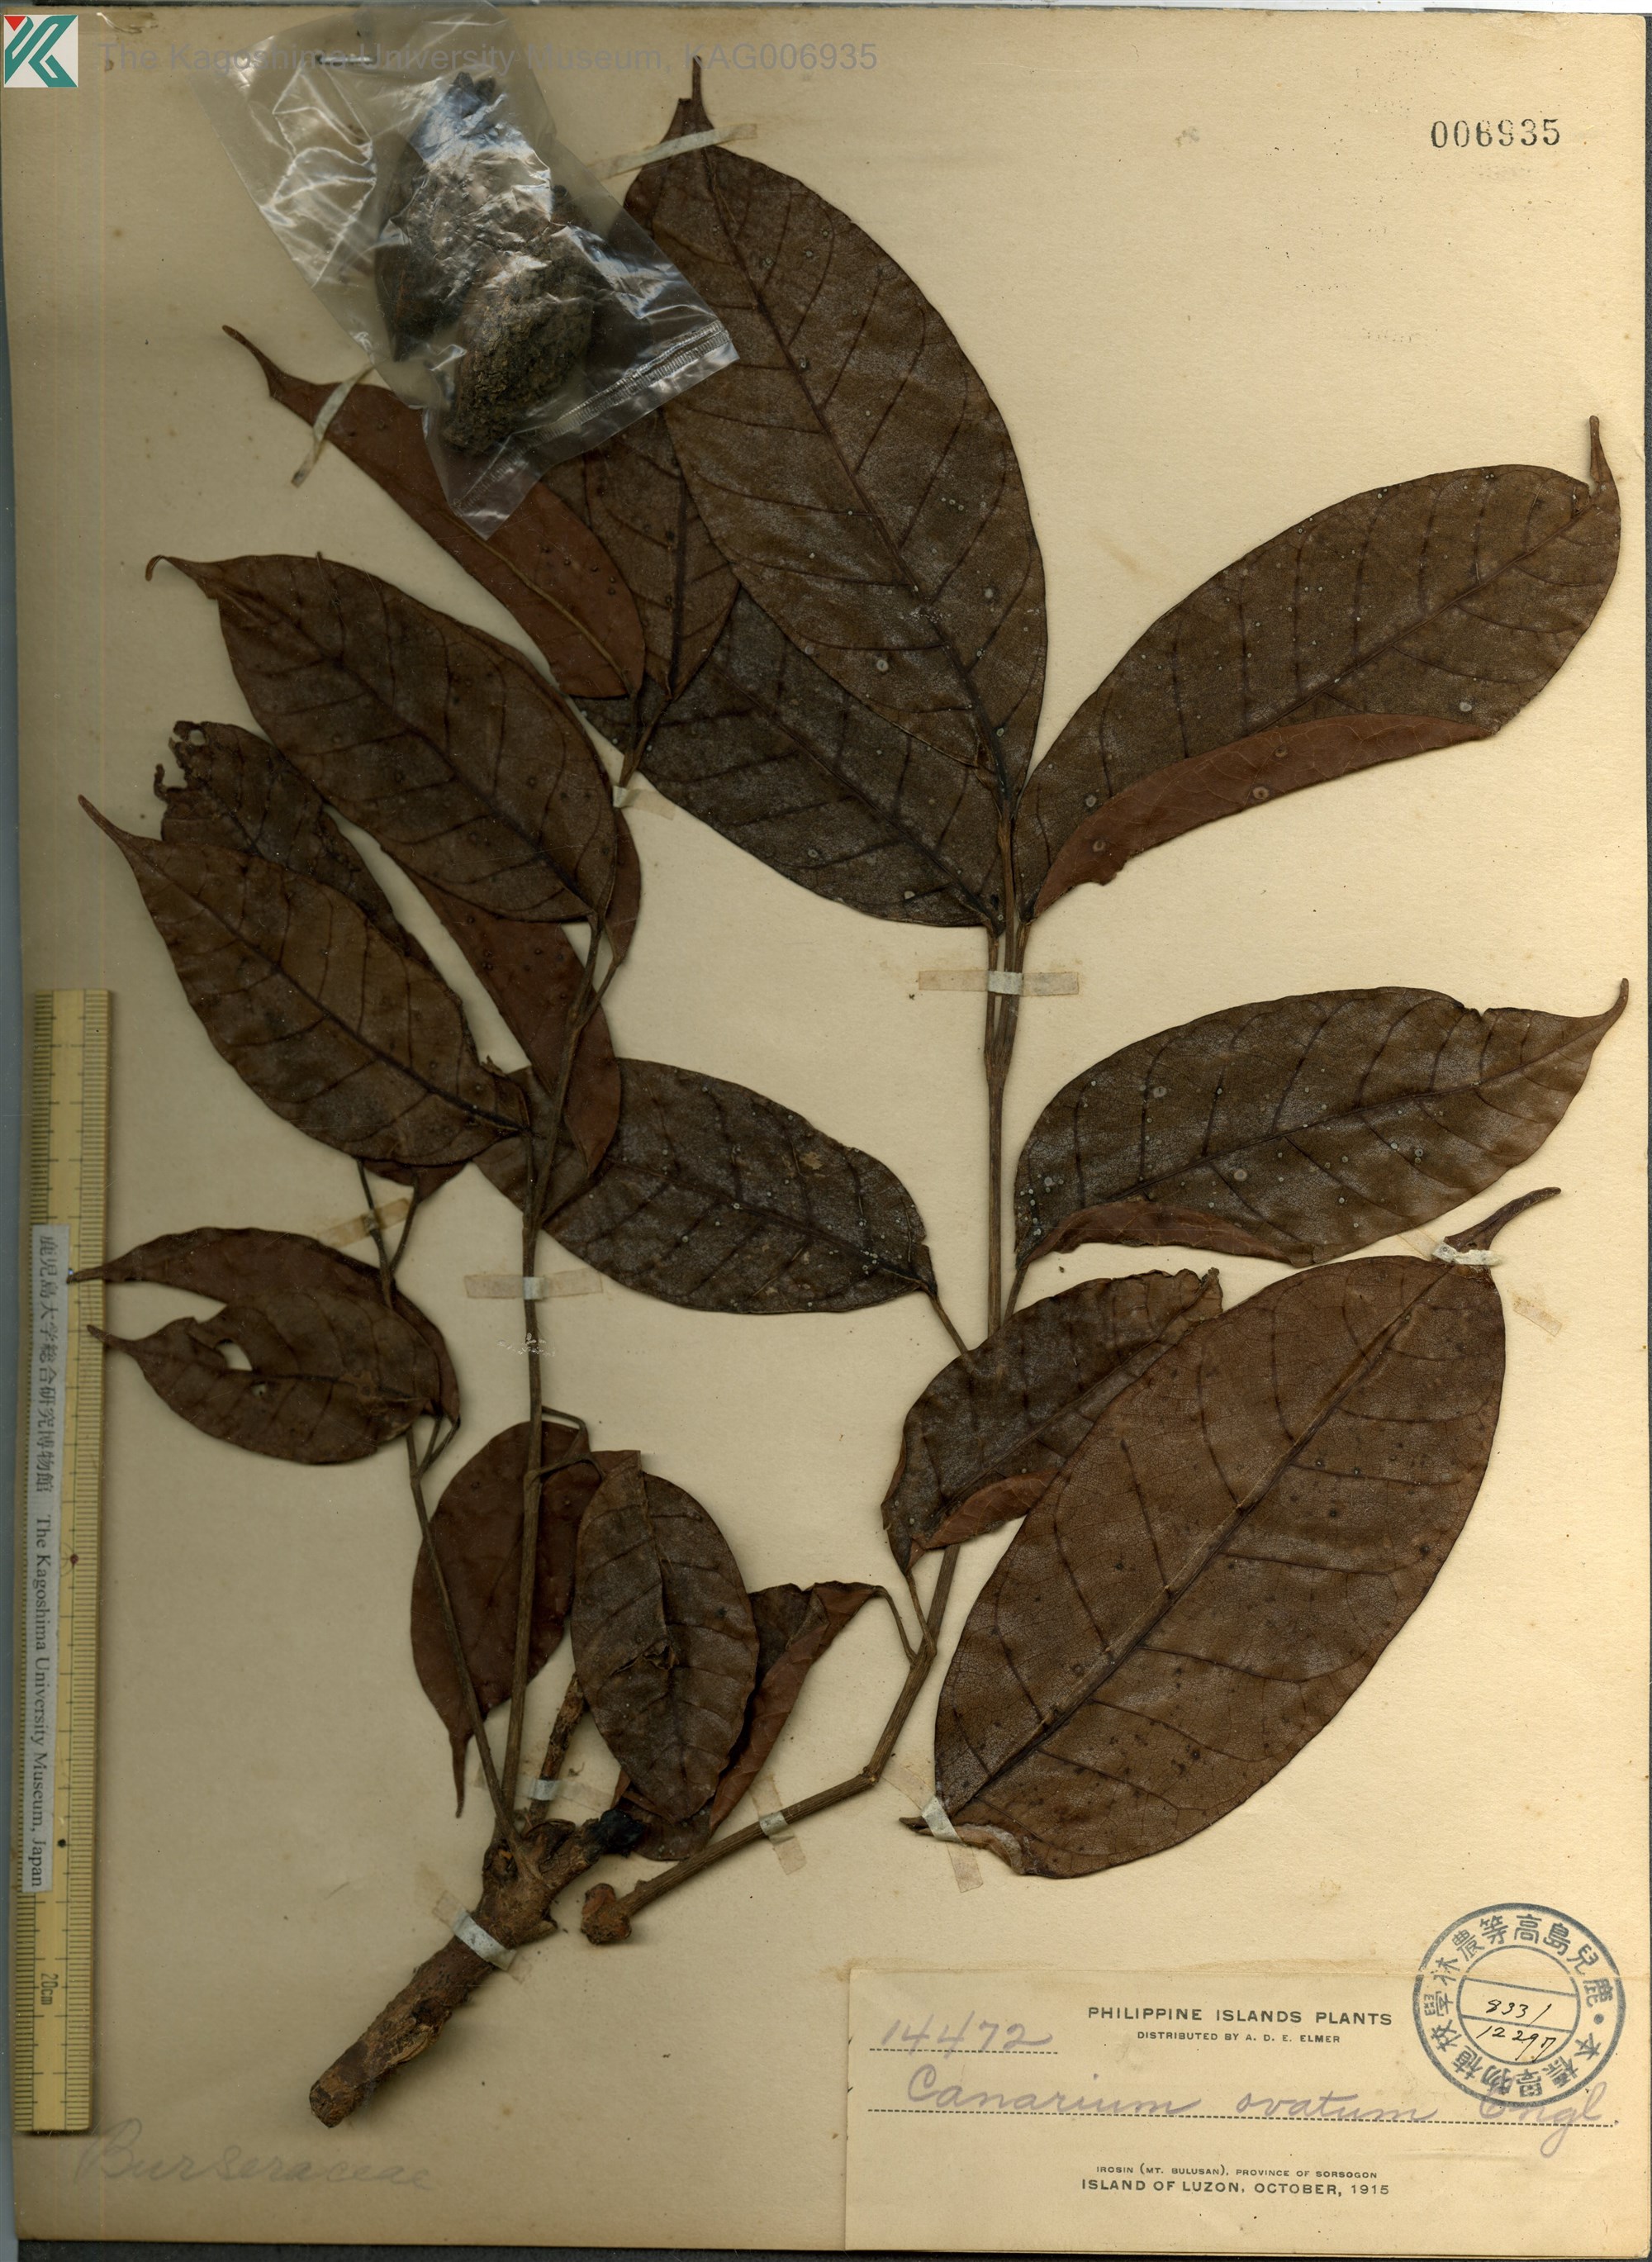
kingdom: Plantae
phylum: Tracheophyta
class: Magnoliopsida
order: Sapindales
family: Burseraceae
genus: Canarium
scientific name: Canarium ovatum
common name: Pilinut
